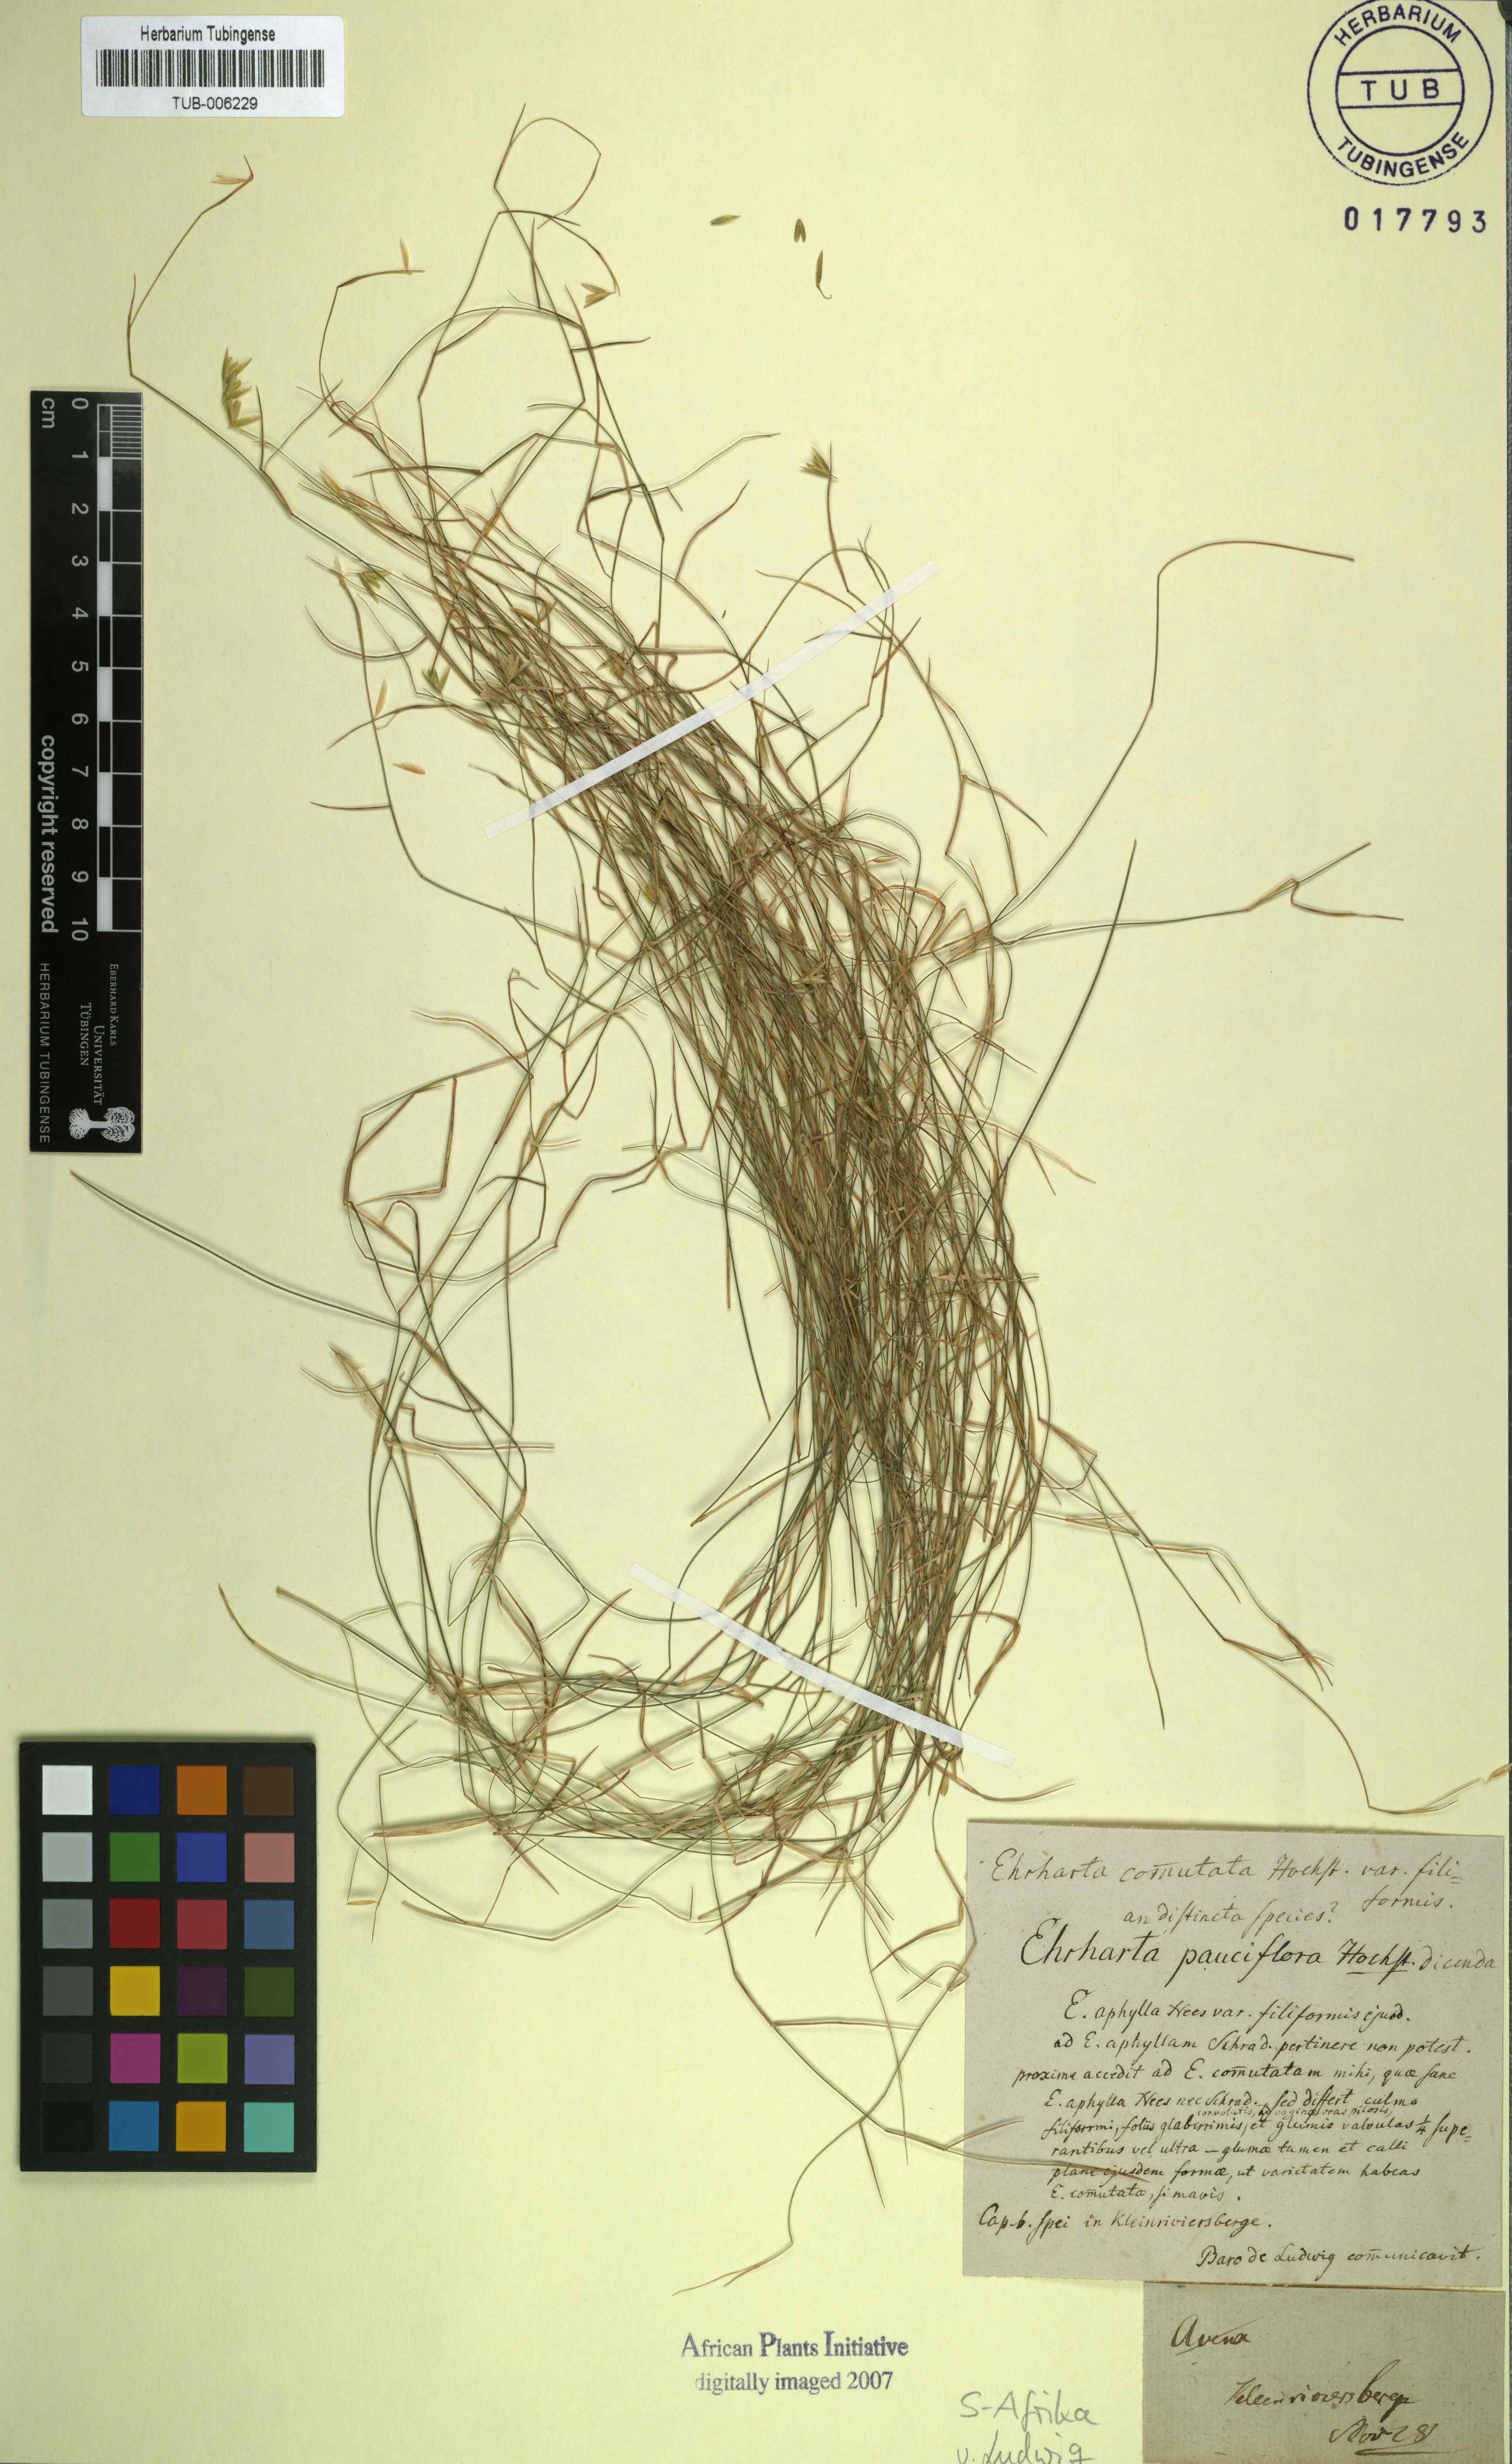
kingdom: Plantae
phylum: Tracheophyta
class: Liliopsida
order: Poales
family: Poaceae
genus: Ehrharta
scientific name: Ehrharta
